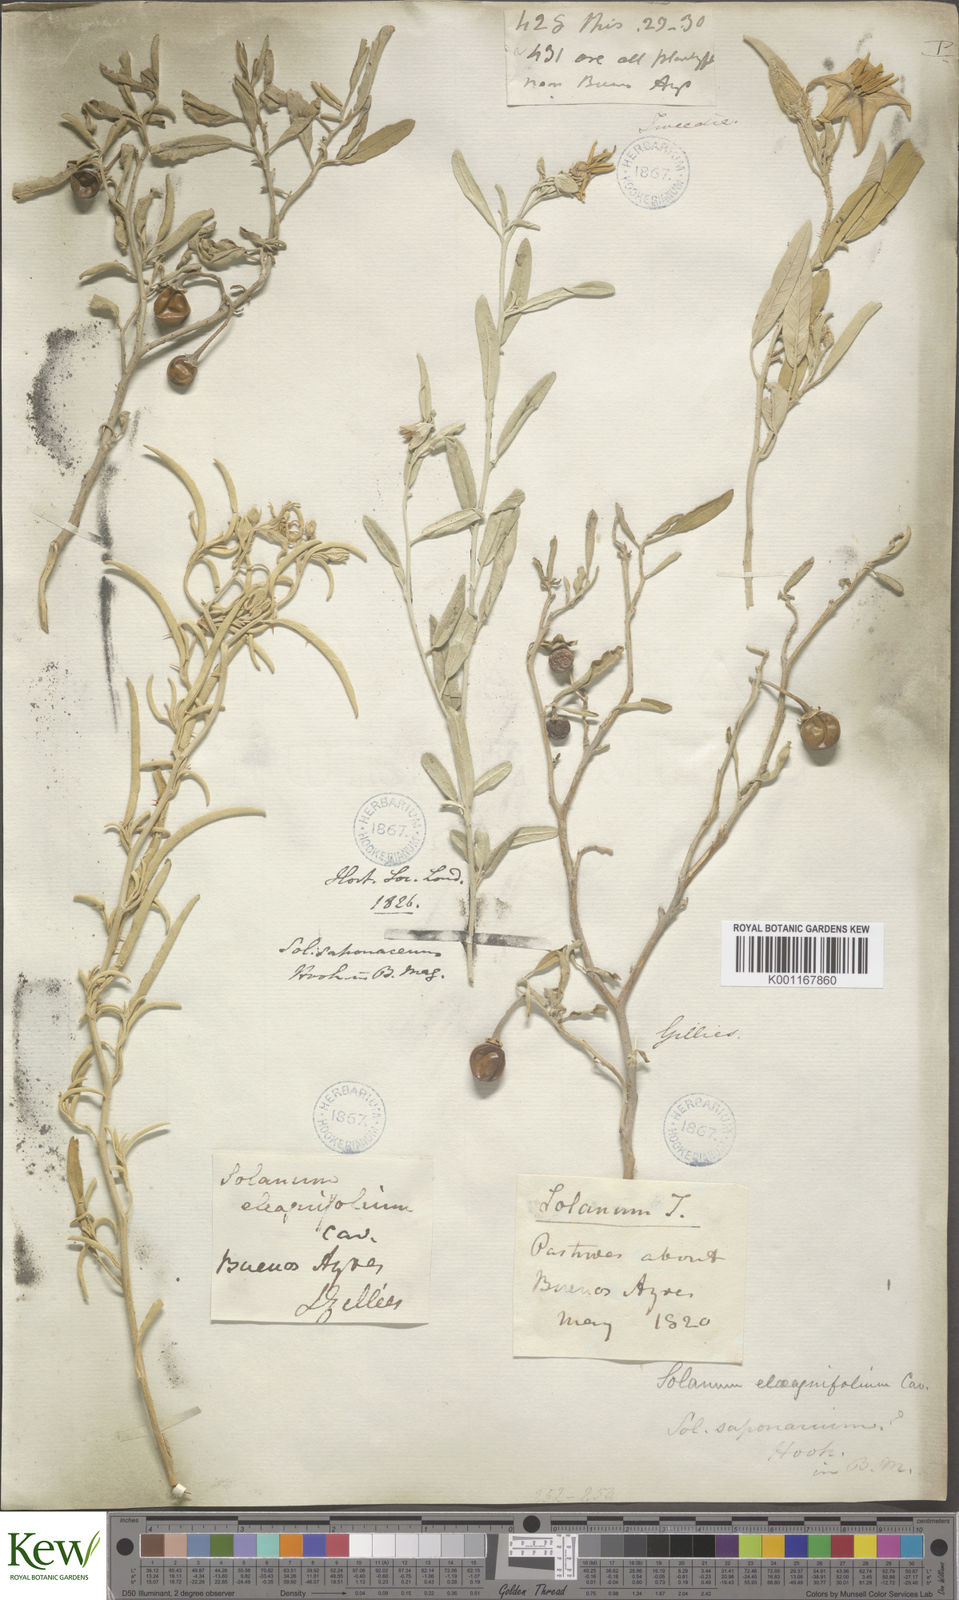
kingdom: Plantae
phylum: Tracheophyta
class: Magnoliopsida
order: Solanales
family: Solanaceae
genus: Solanum
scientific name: Solanum elaeagnifolium
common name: Silverleaf nightshade
